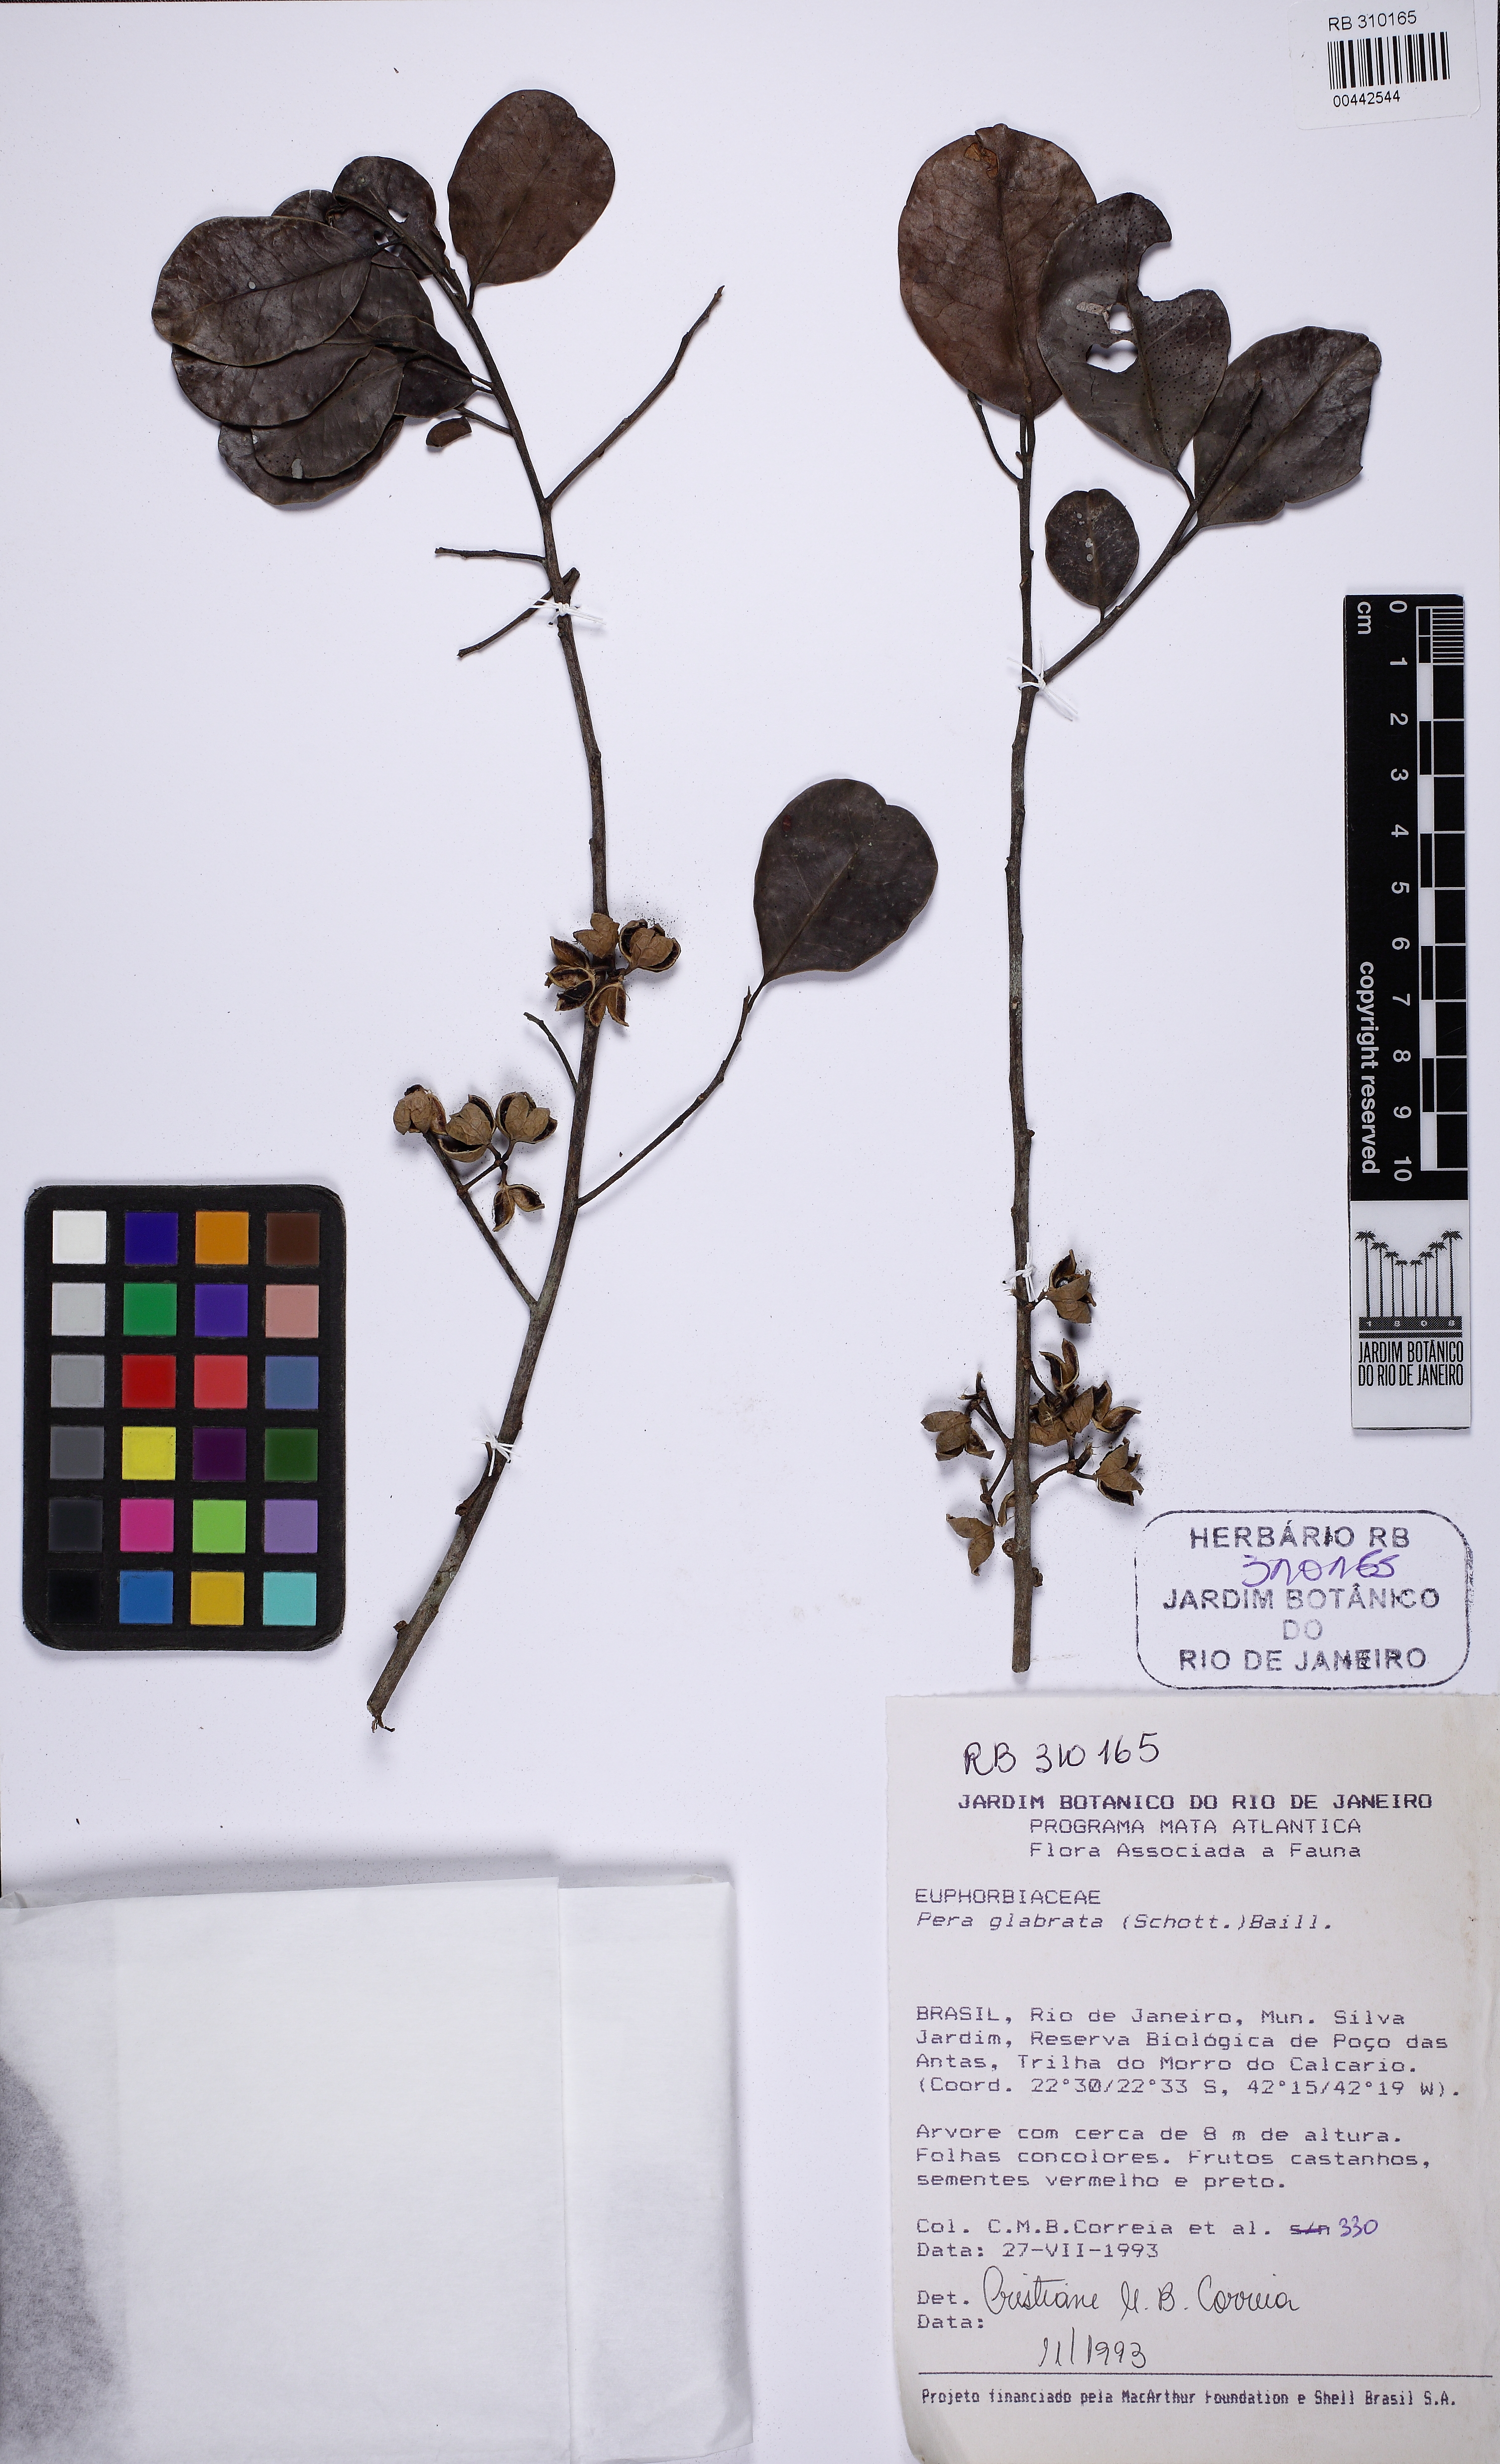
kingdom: Plantae
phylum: Tracheophyta
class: Magnoliopsida
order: Malpighiales
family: Peraceae
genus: Pera
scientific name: Pera glabrata
